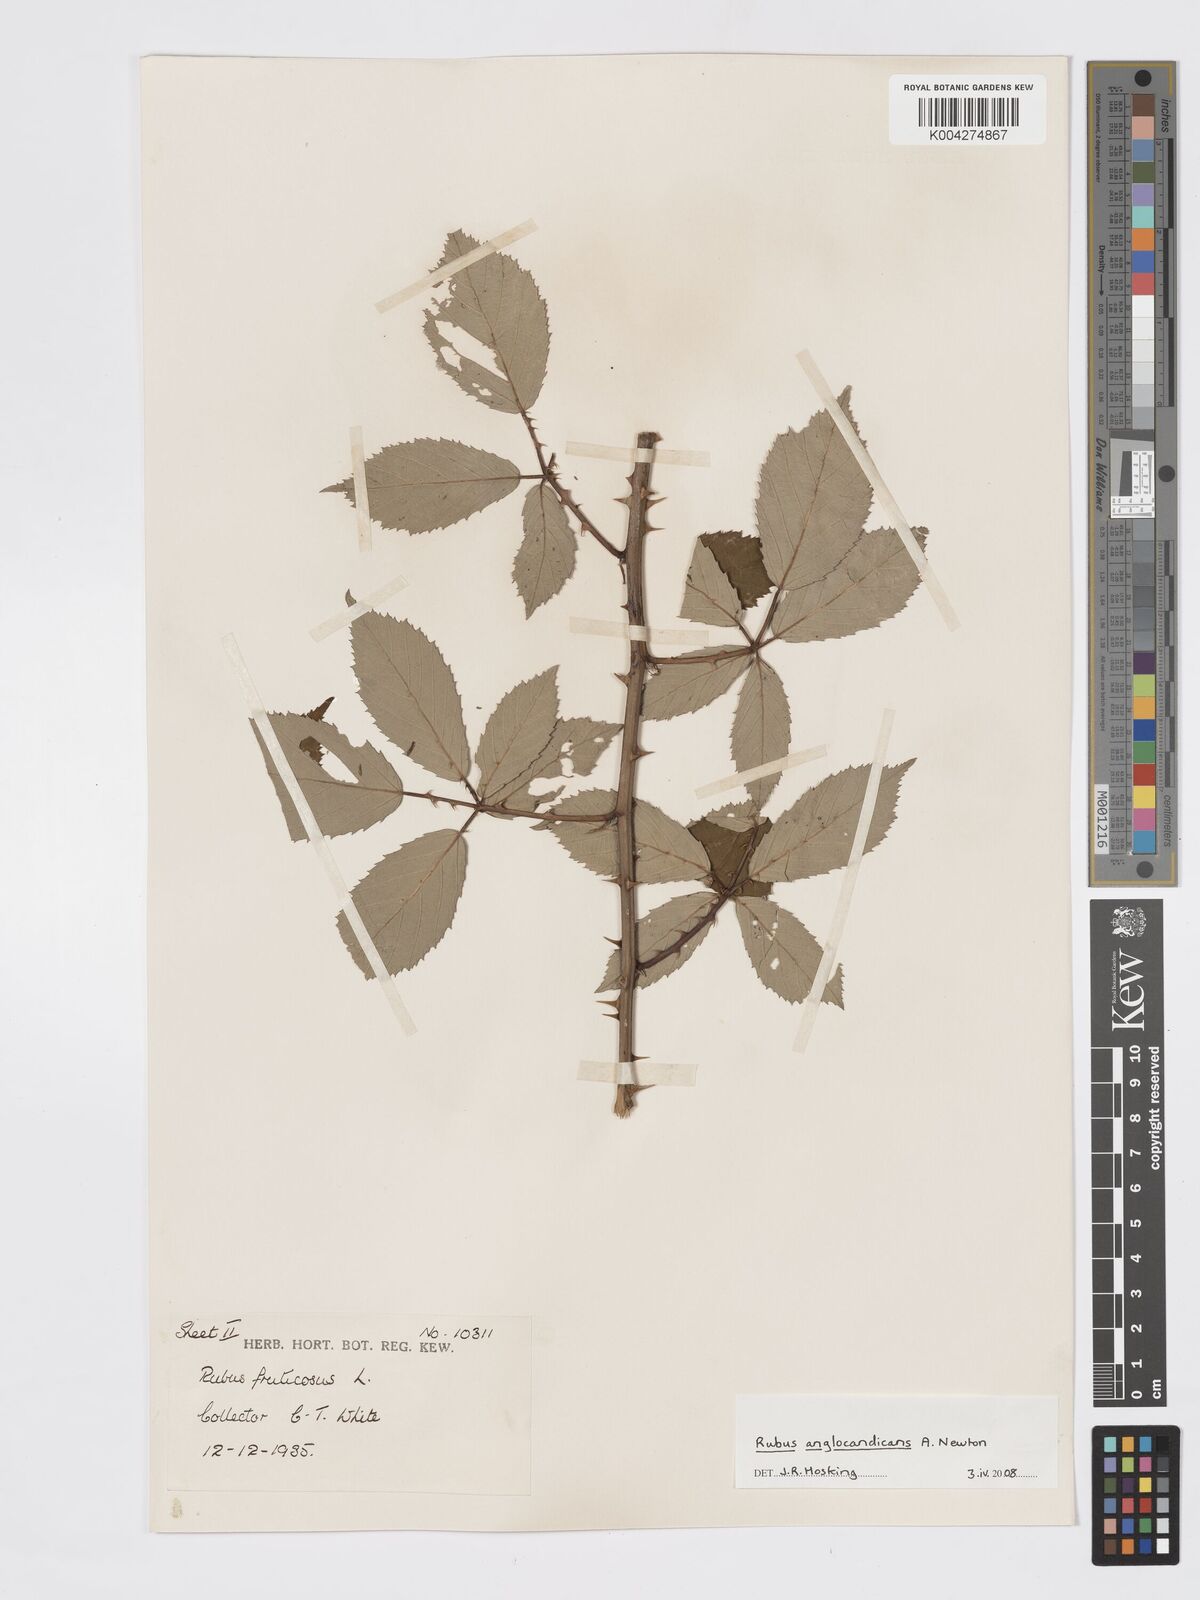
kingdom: Plantae
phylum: Tracheophyta
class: Magnoliopsida
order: Rosales
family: Rosaceae
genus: Rubus
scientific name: Rubus anglocandicans
